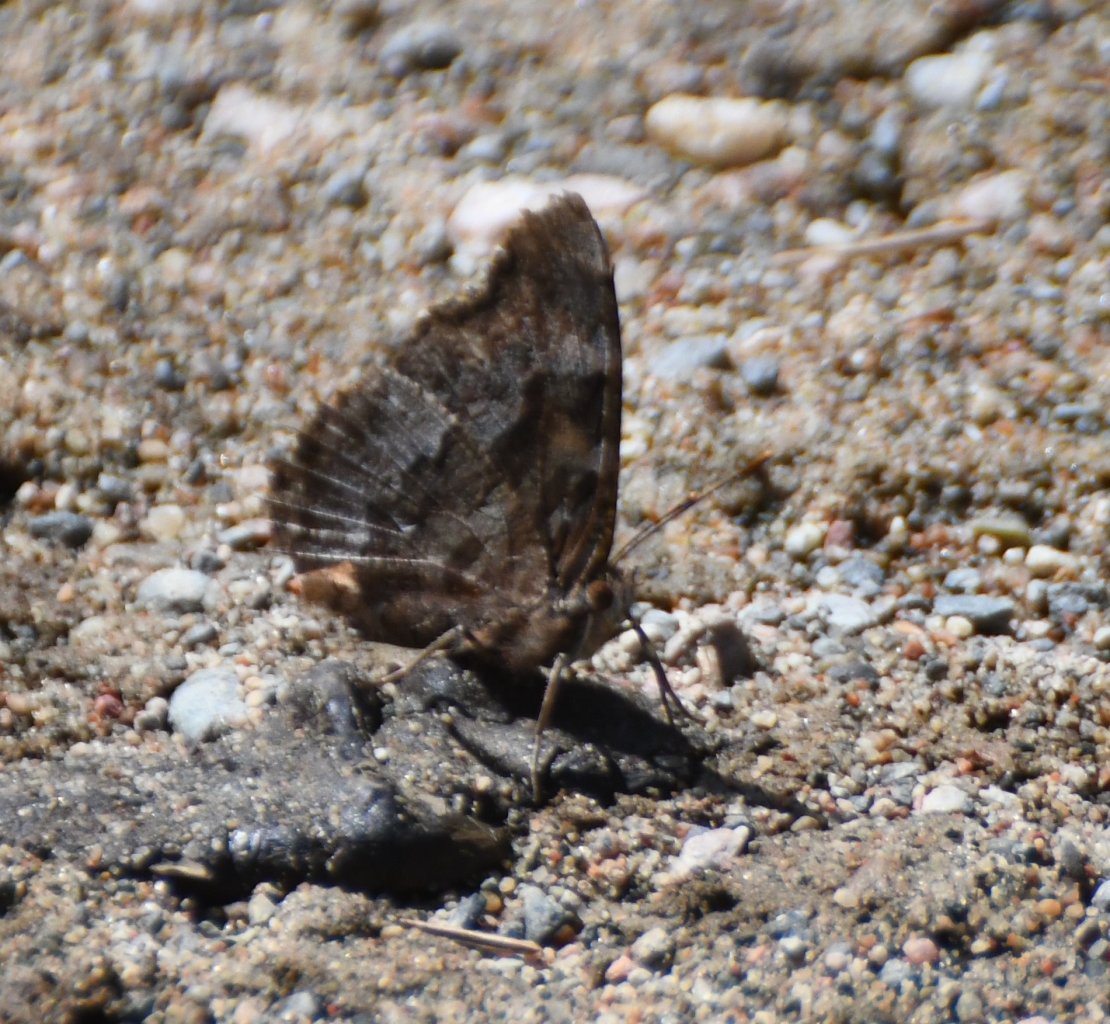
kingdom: Animalia
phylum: Arthropoda
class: Insecta
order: Lepidoptera
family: Nymphalidae
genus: Polygonia
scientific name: Polygonia vaualbum
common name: Compton Tortoiseshell
